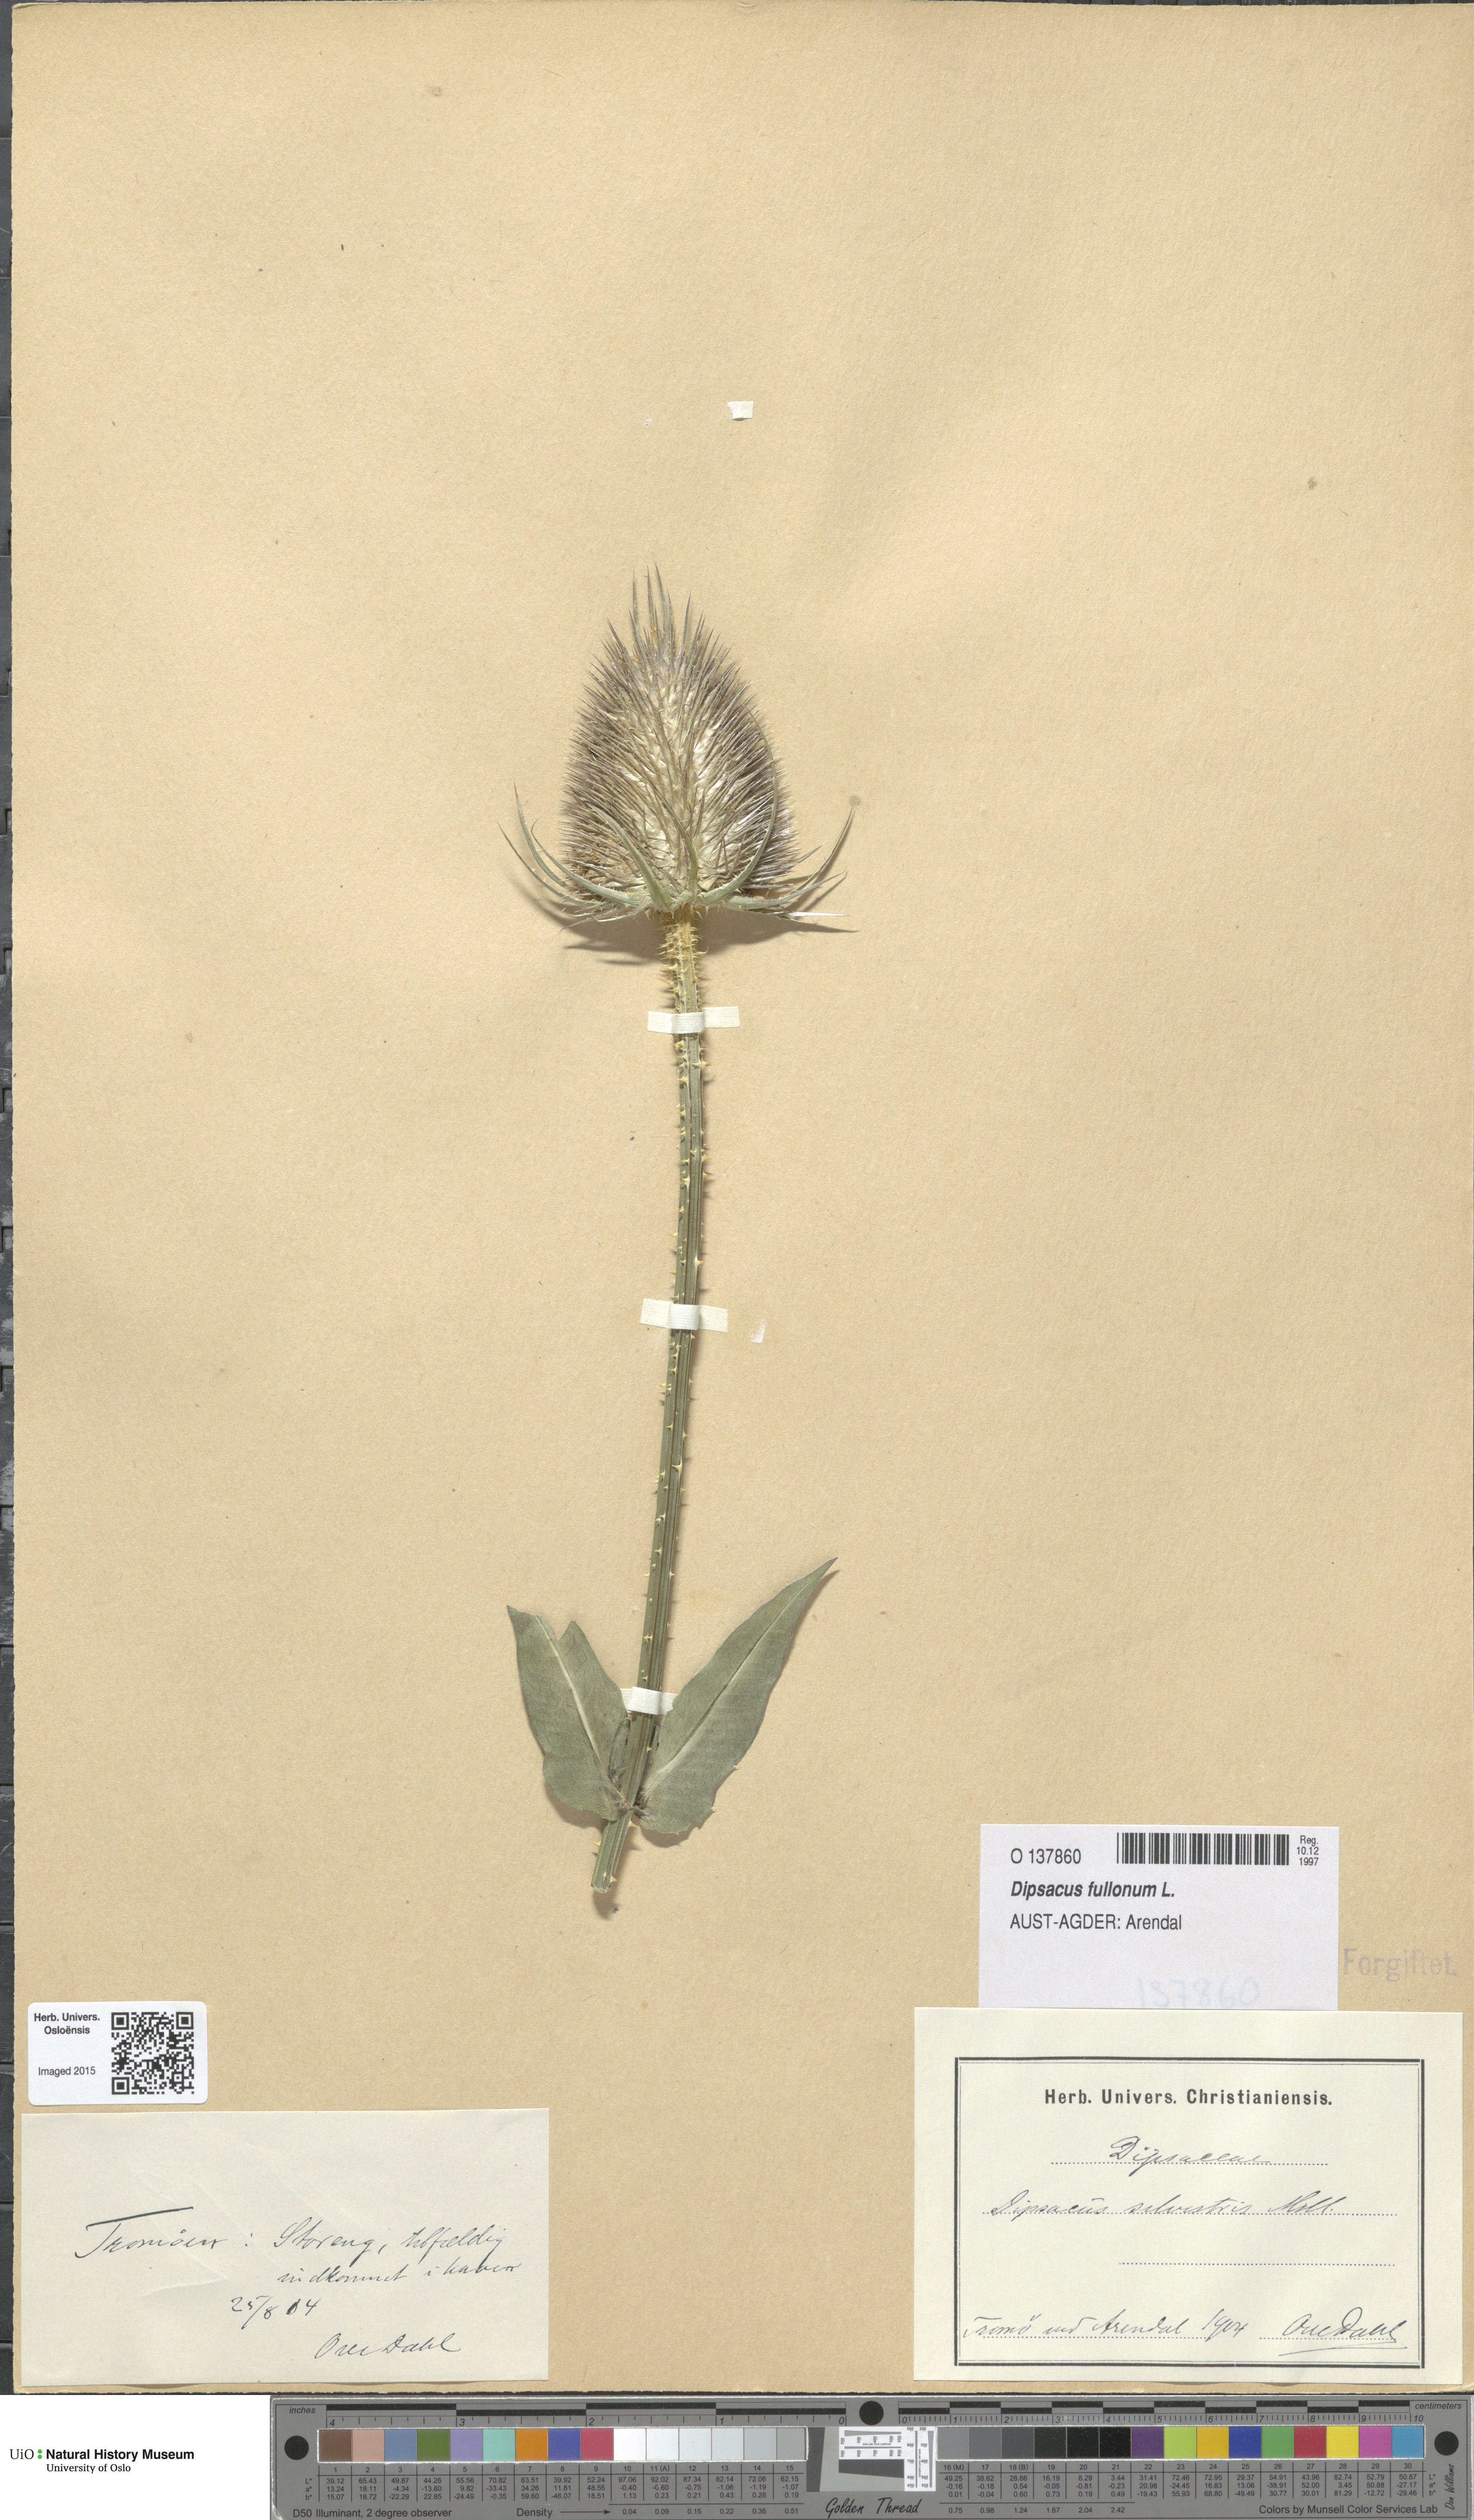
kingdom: Plantae
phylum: Tracheophyta
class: Magnoliopsida
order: Dipsacales
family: Caprifoliaceae
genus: Dipsacus
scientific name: Dipsacus fullonum
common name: Teasel
